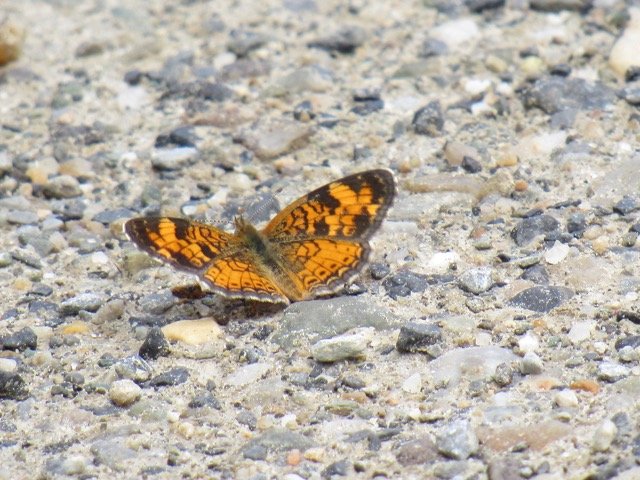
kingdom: Animalia
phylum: Arthropoda
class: Insecta
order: Lepidoptera
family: Nymphalidae
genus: Phyciodes
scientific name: Phyciodes tharos
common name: Pearl Crescent
